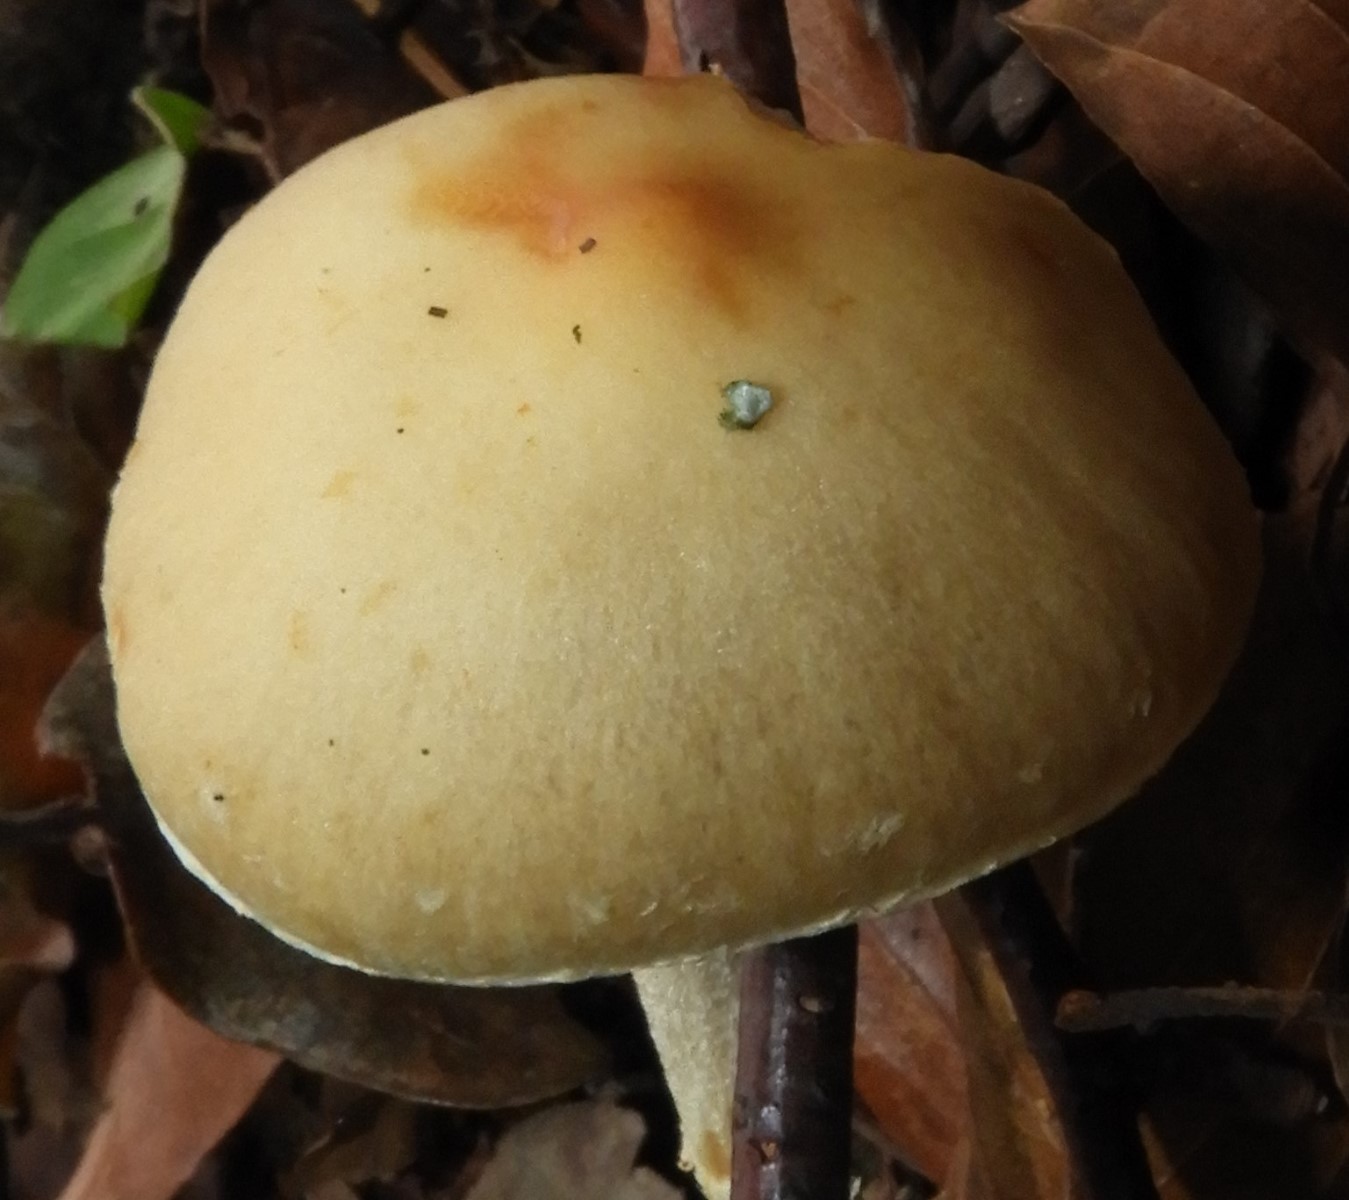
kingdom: Fungi
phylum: Basidiomycota
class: Agaricomycetes
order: Agaricales
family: Strophariaceae
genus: Leratiomyces
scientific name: Leratiomyces squamosus
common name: skællet bredblad
